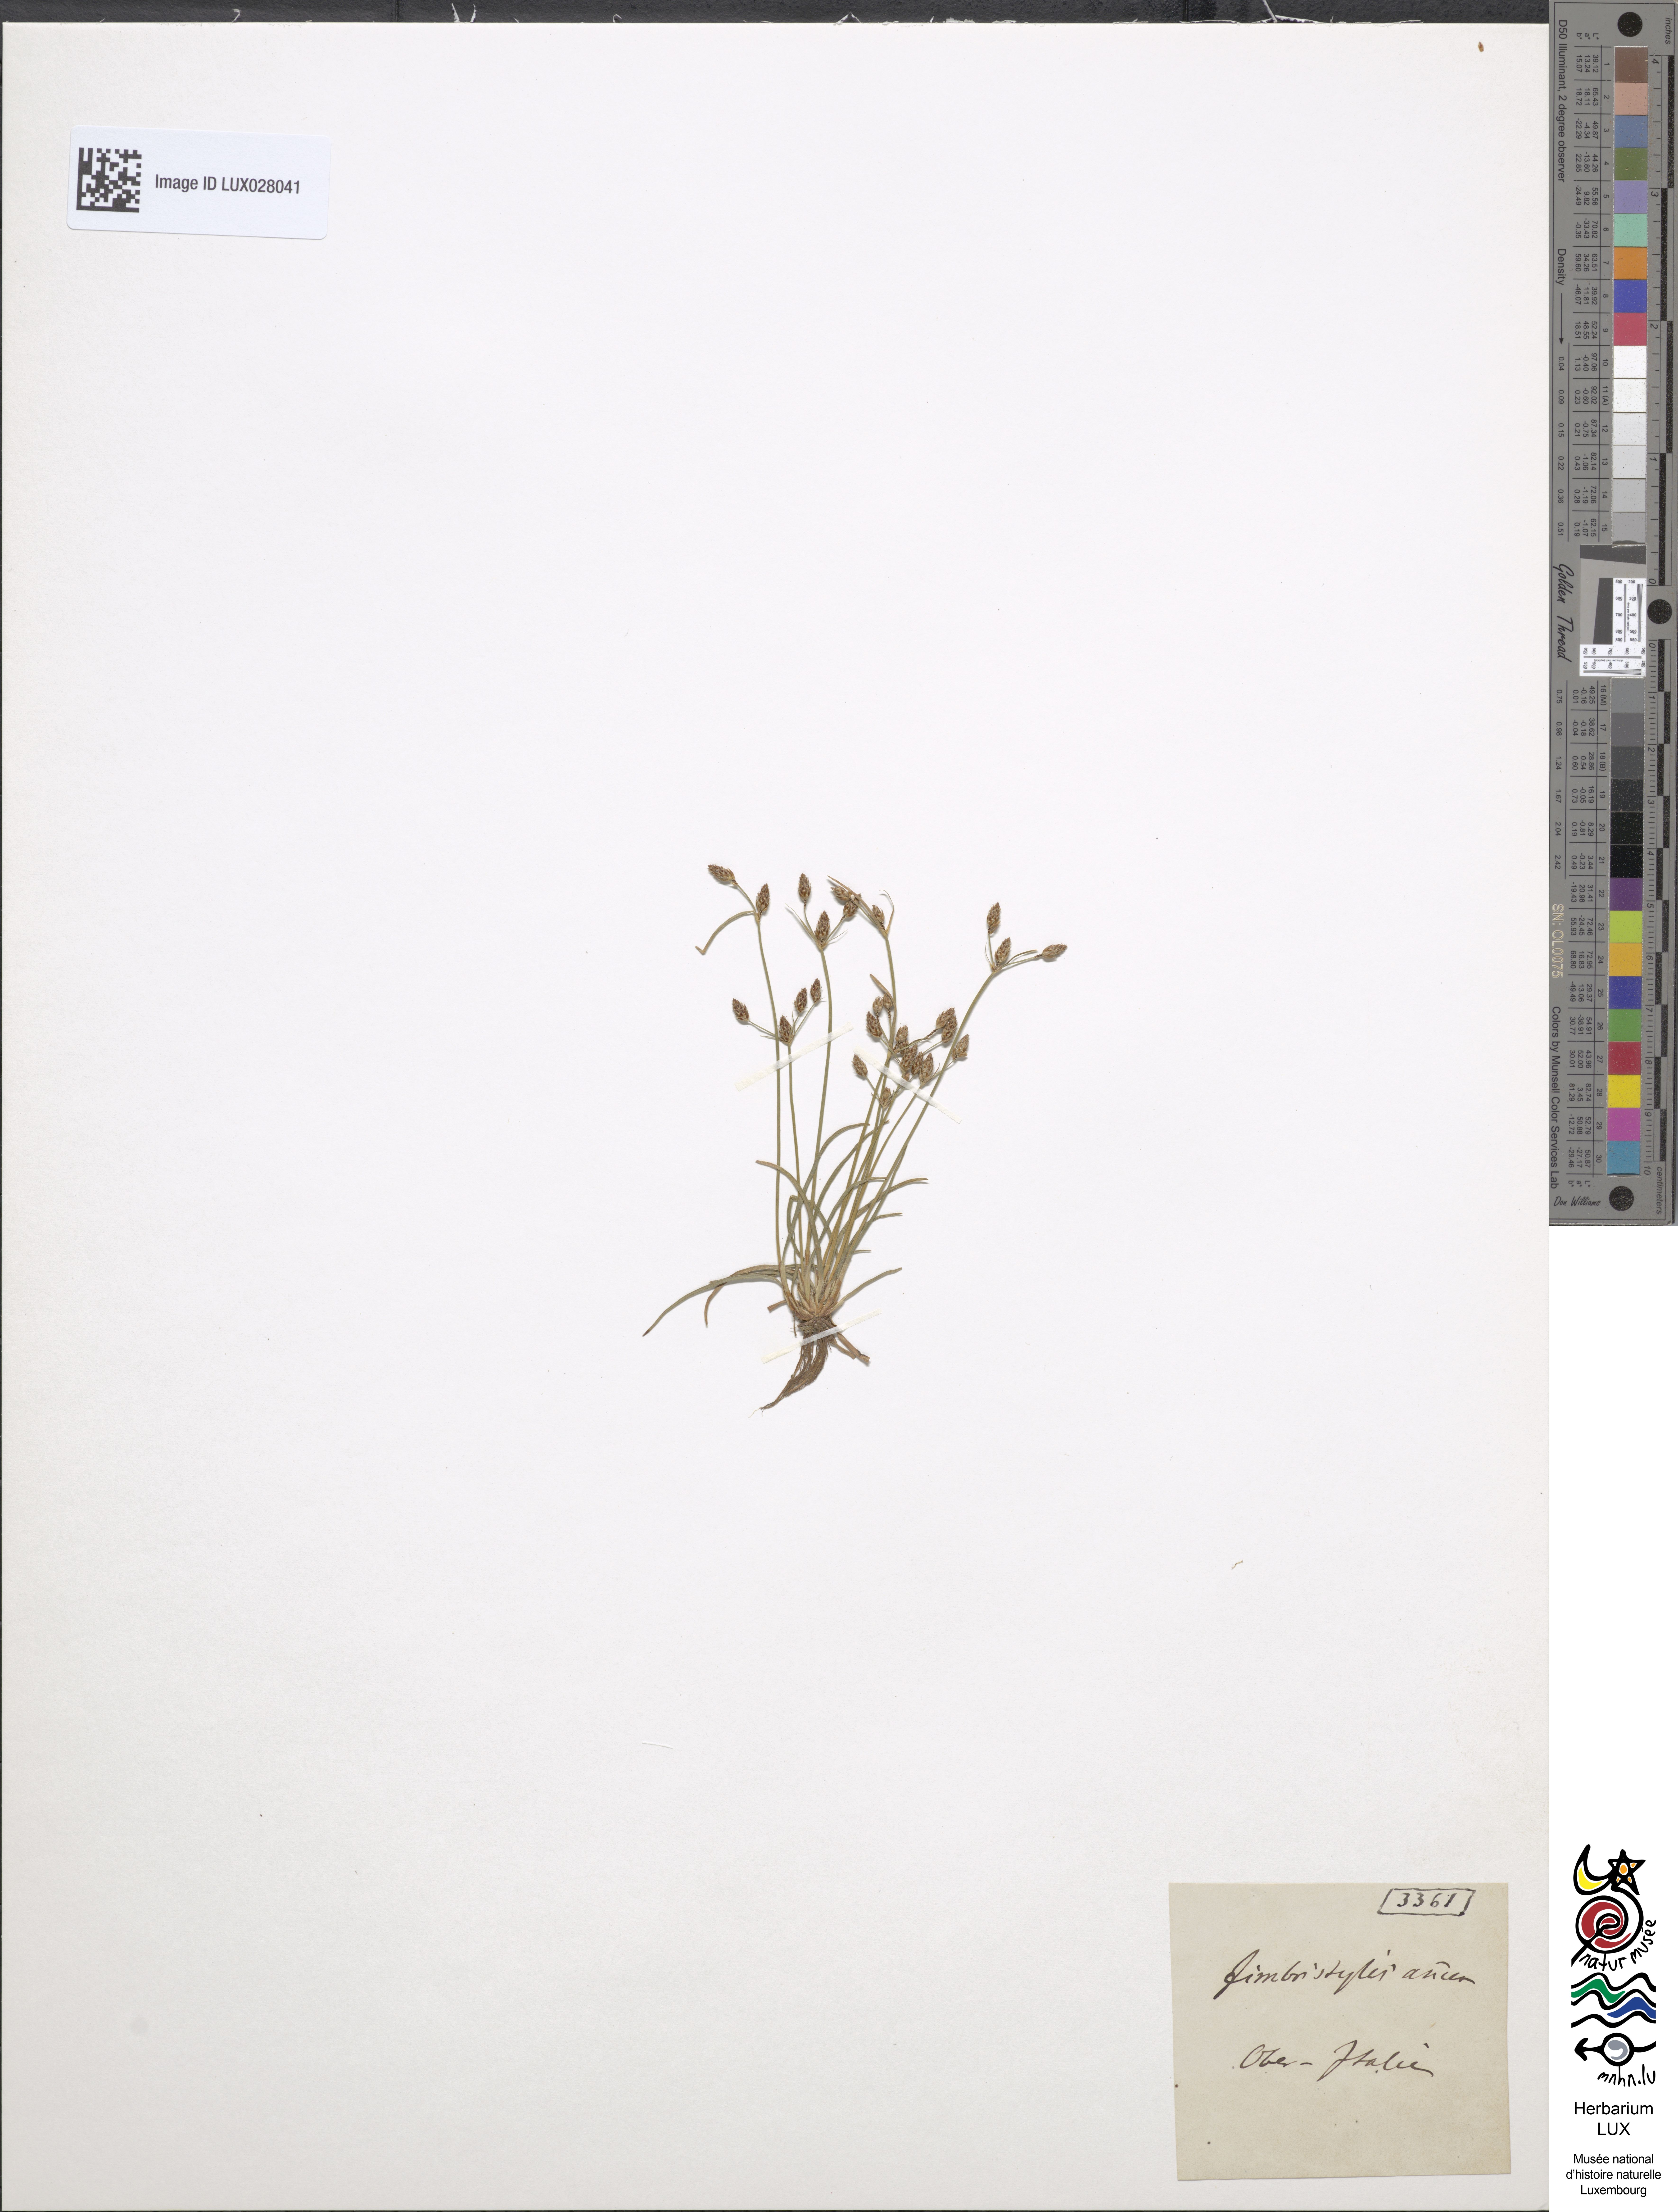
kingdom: Plantae
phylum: Tracheophyta
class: Liliopsida
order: Poales
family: Cyperaceae
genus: Fimbristylis
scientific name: Fimbristylis dichotoma
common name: Forked fimbry
